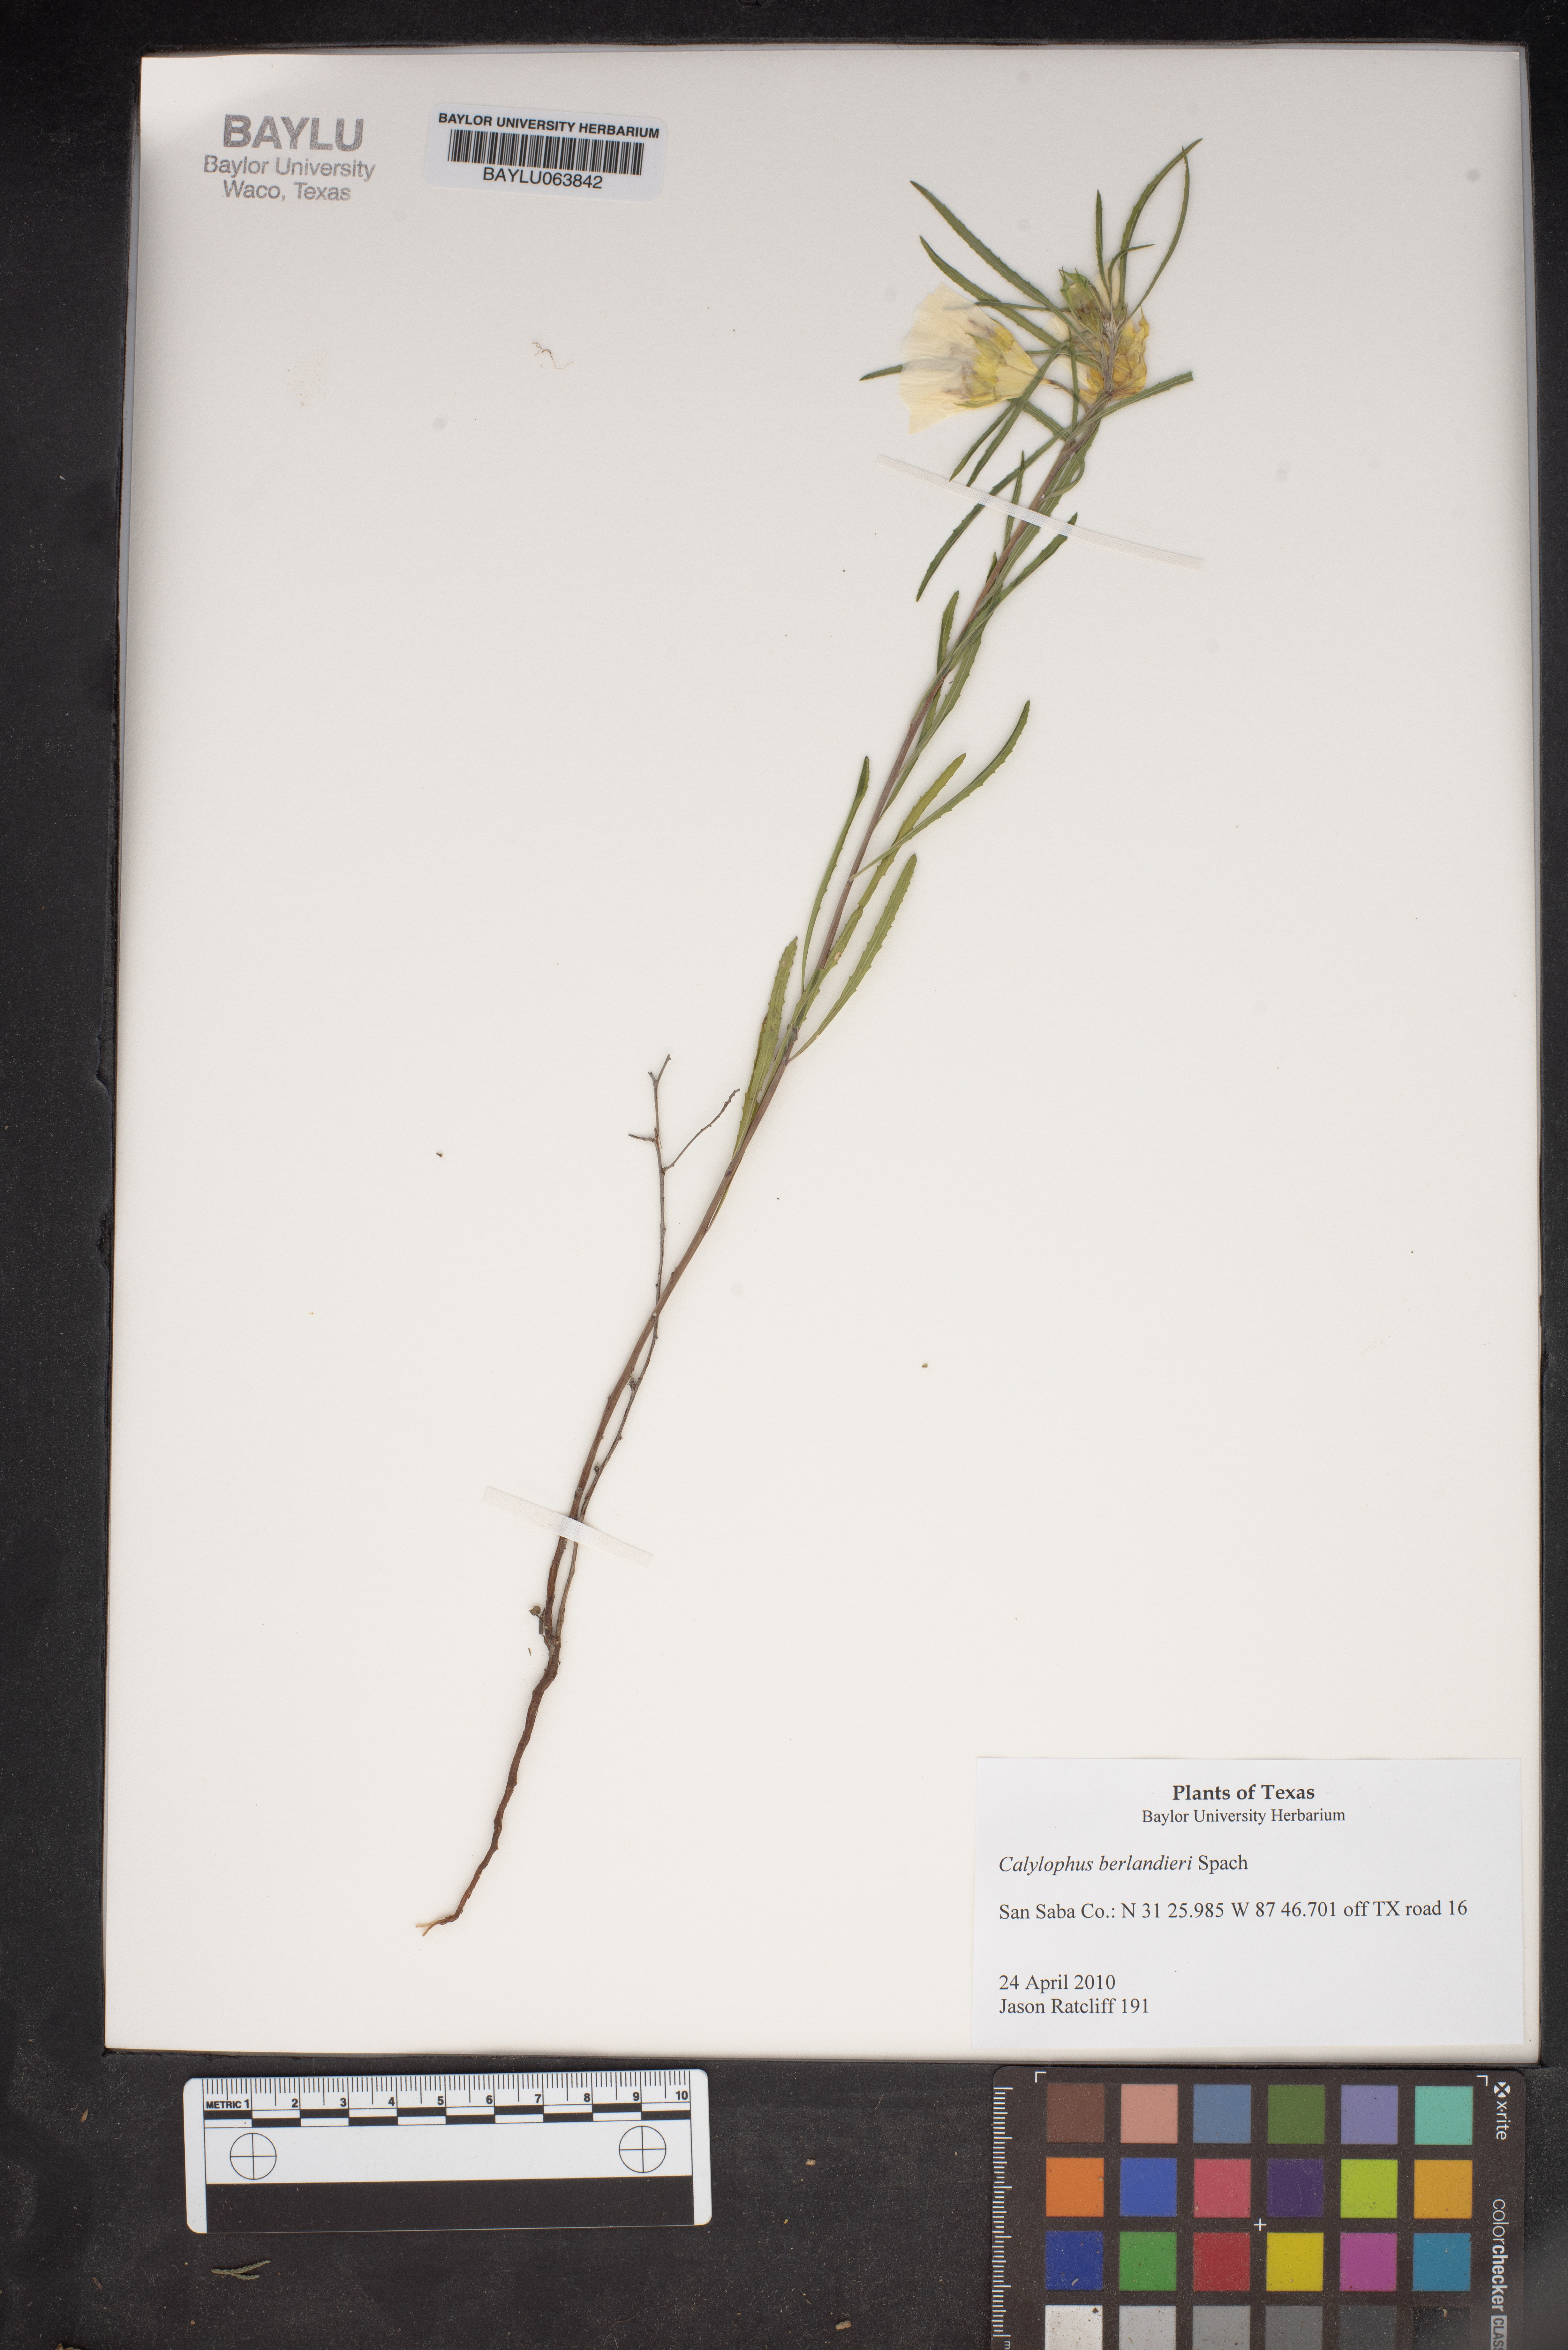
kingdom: Plantae
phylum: Tracheophyta
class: Magnoliopsida
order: Myrtales
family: Onagraceae
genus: Oenothera
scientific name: Oenothera capillifolia
